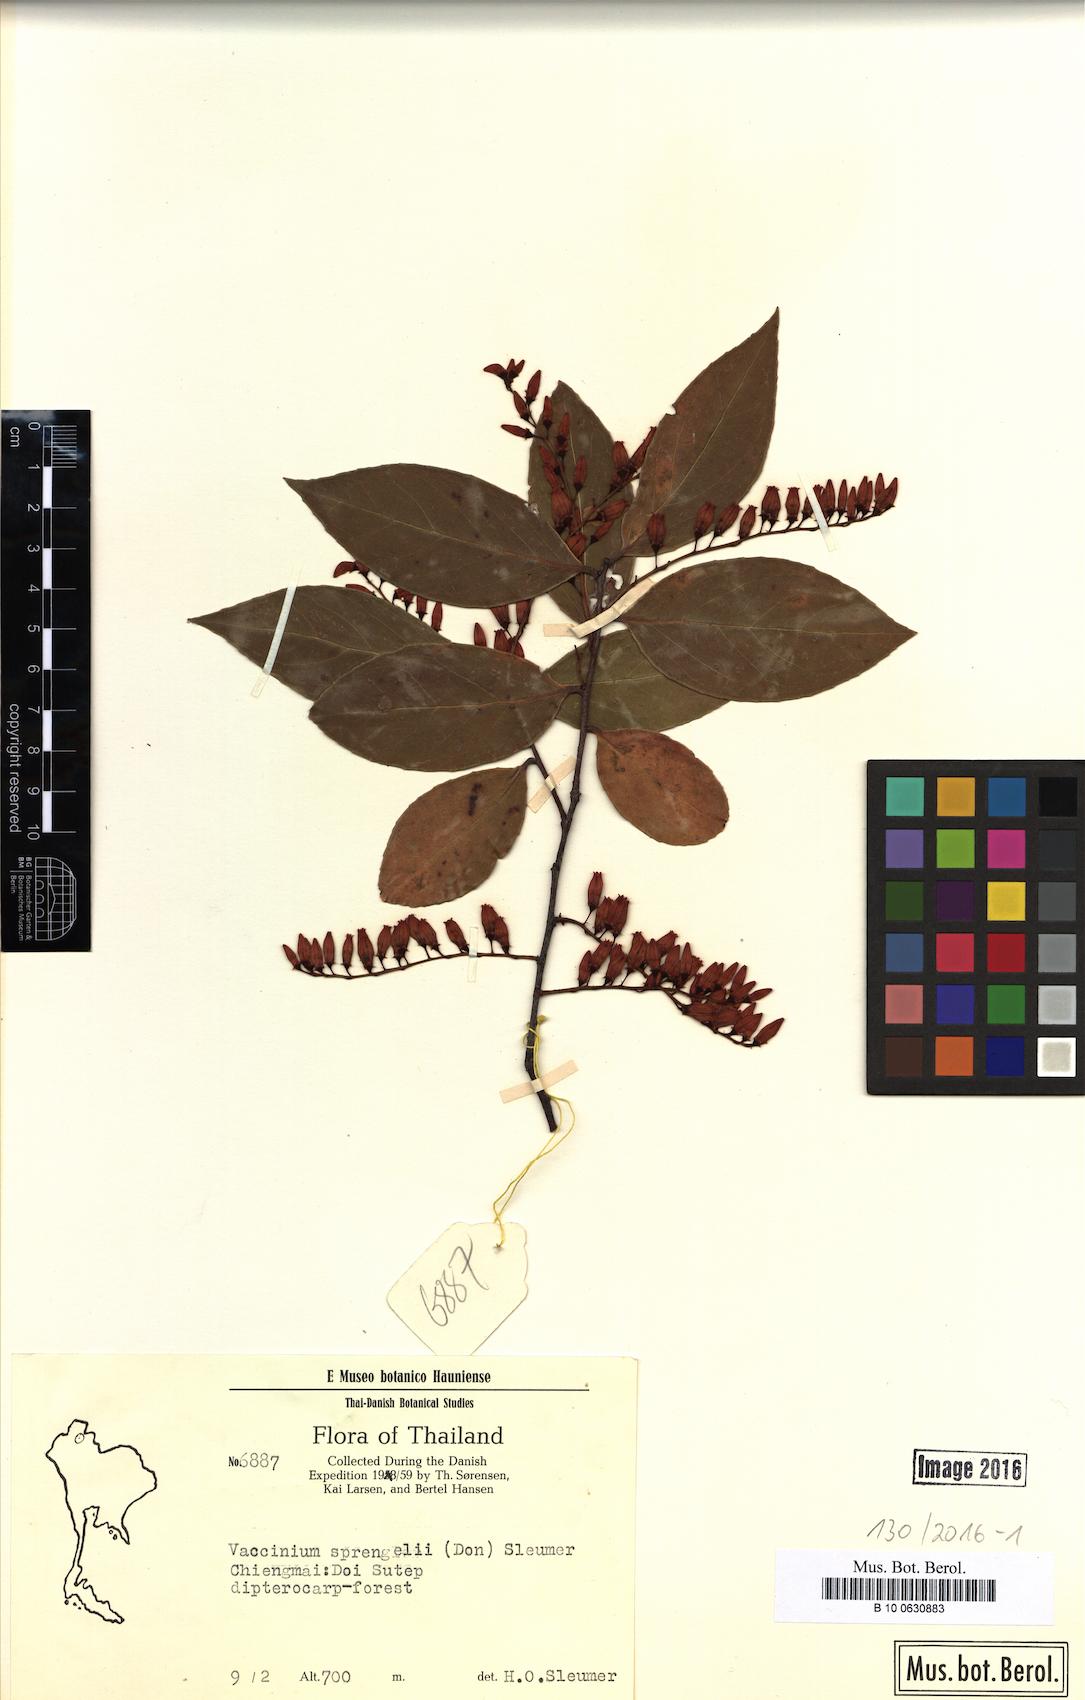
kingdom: Plantae
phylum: Tracheophyta
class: Magnoliopsida
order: Ericales
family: Ericaceae
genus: Vaccinium
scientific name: Vaccinium sprengelii
